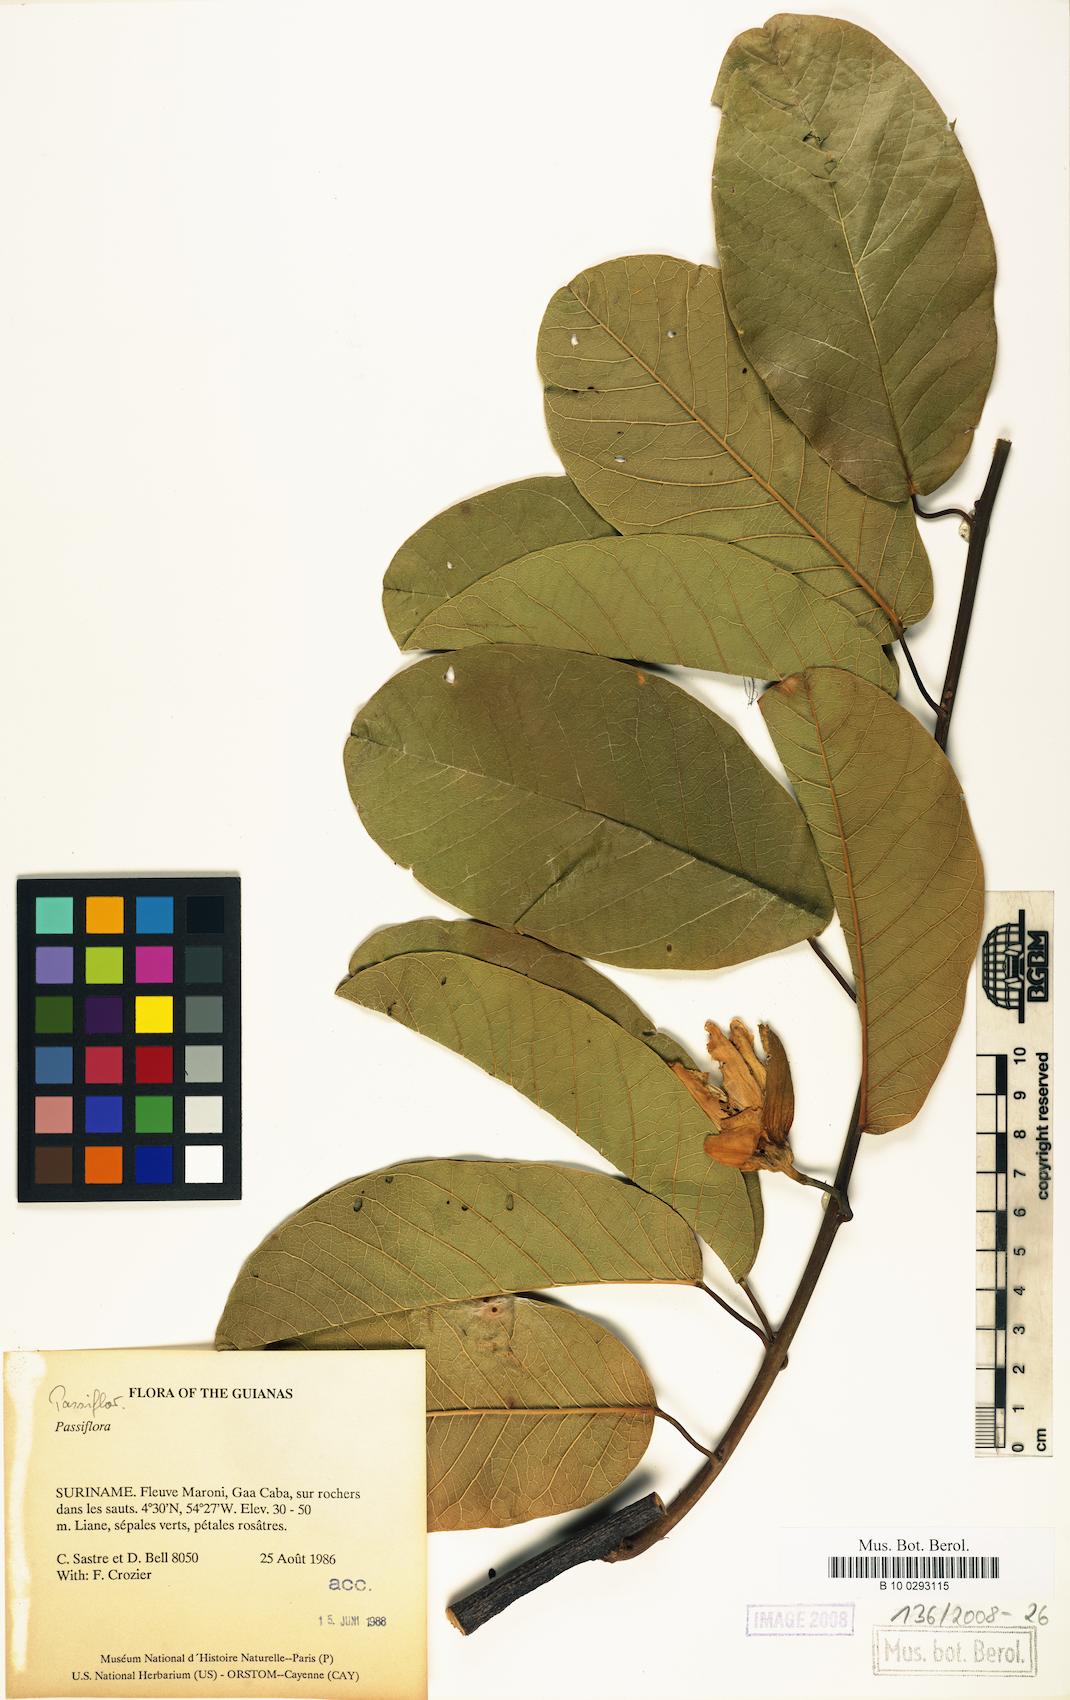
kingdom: Plantae
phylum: Tracheophyta
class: Magnoliopsida
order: Malpighiales
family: Passifloraceae
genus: Passiflora
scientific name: Passiflora
